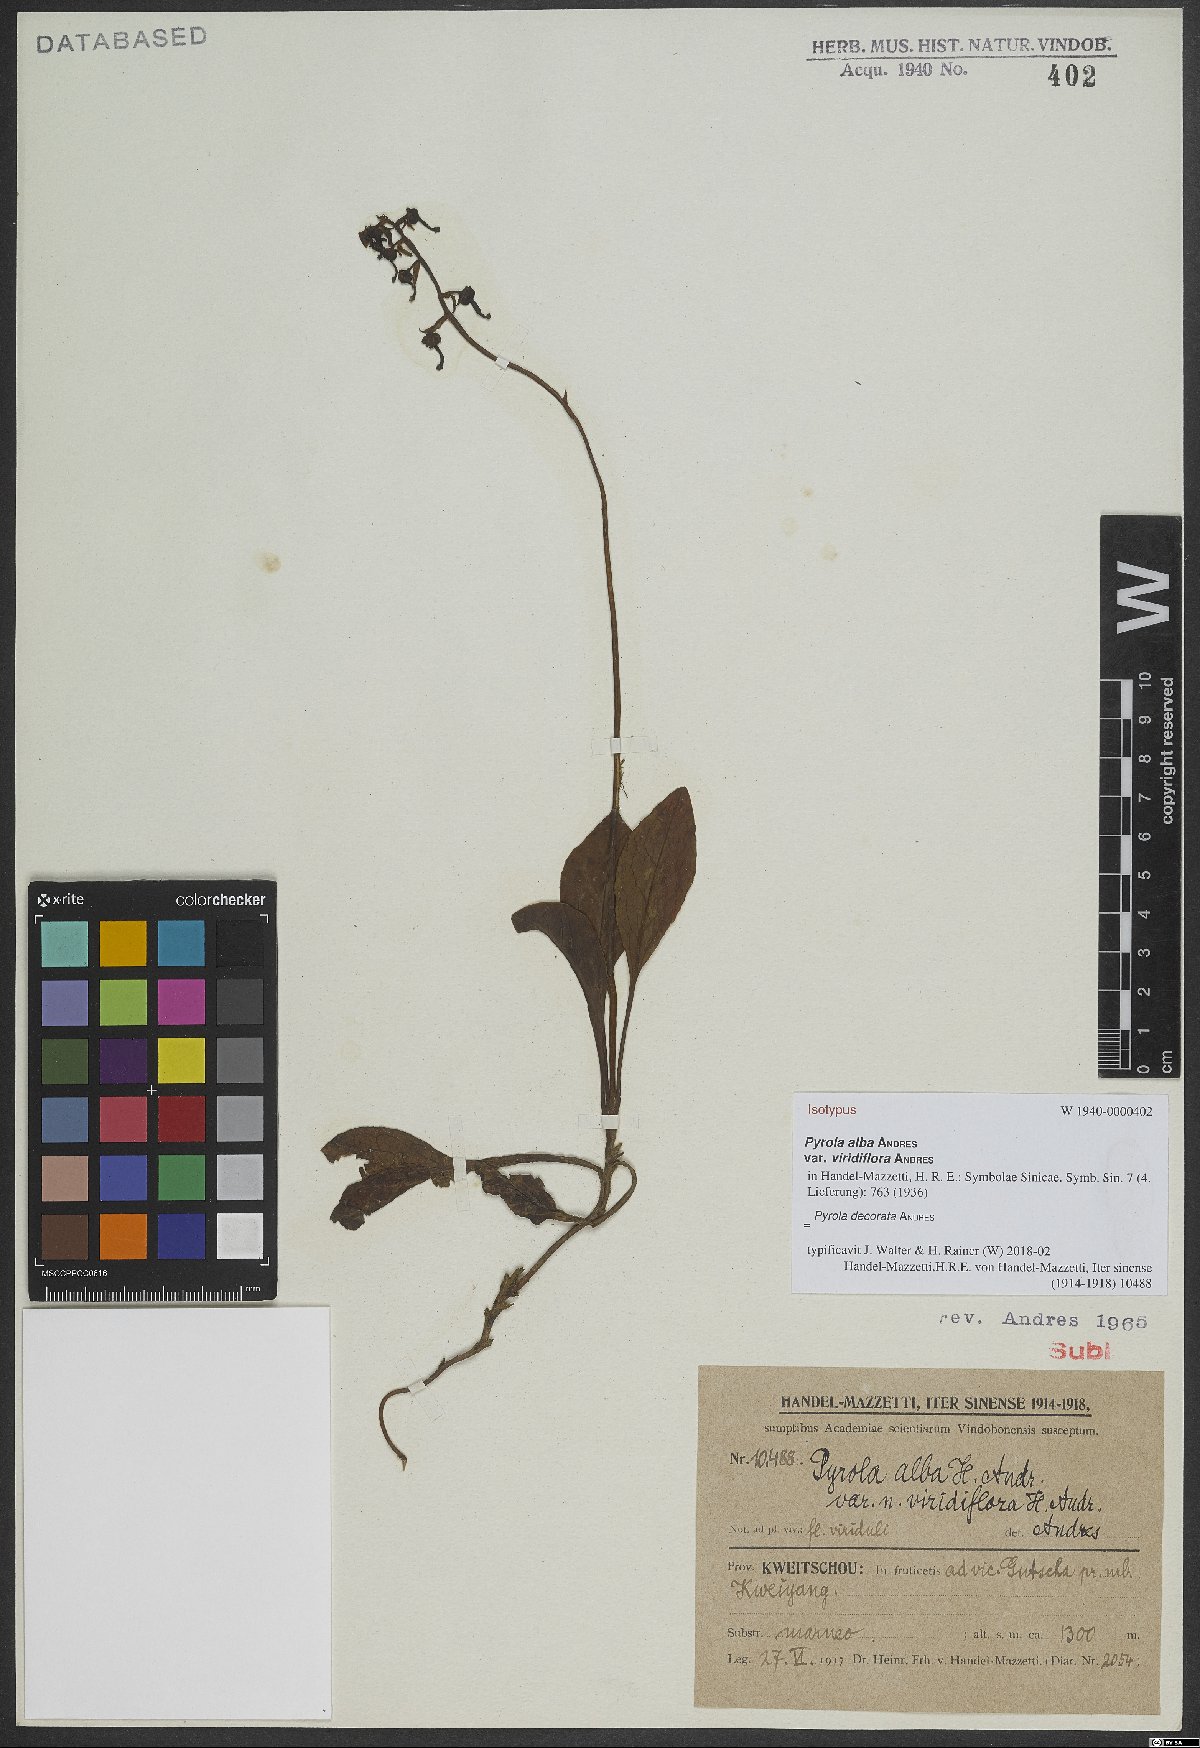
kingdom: Plantae
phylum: Tracheophyta
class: Magnoliopsida
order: Ericales
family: Ericaceae
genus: Pyrola
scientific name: Pyrola decorata
